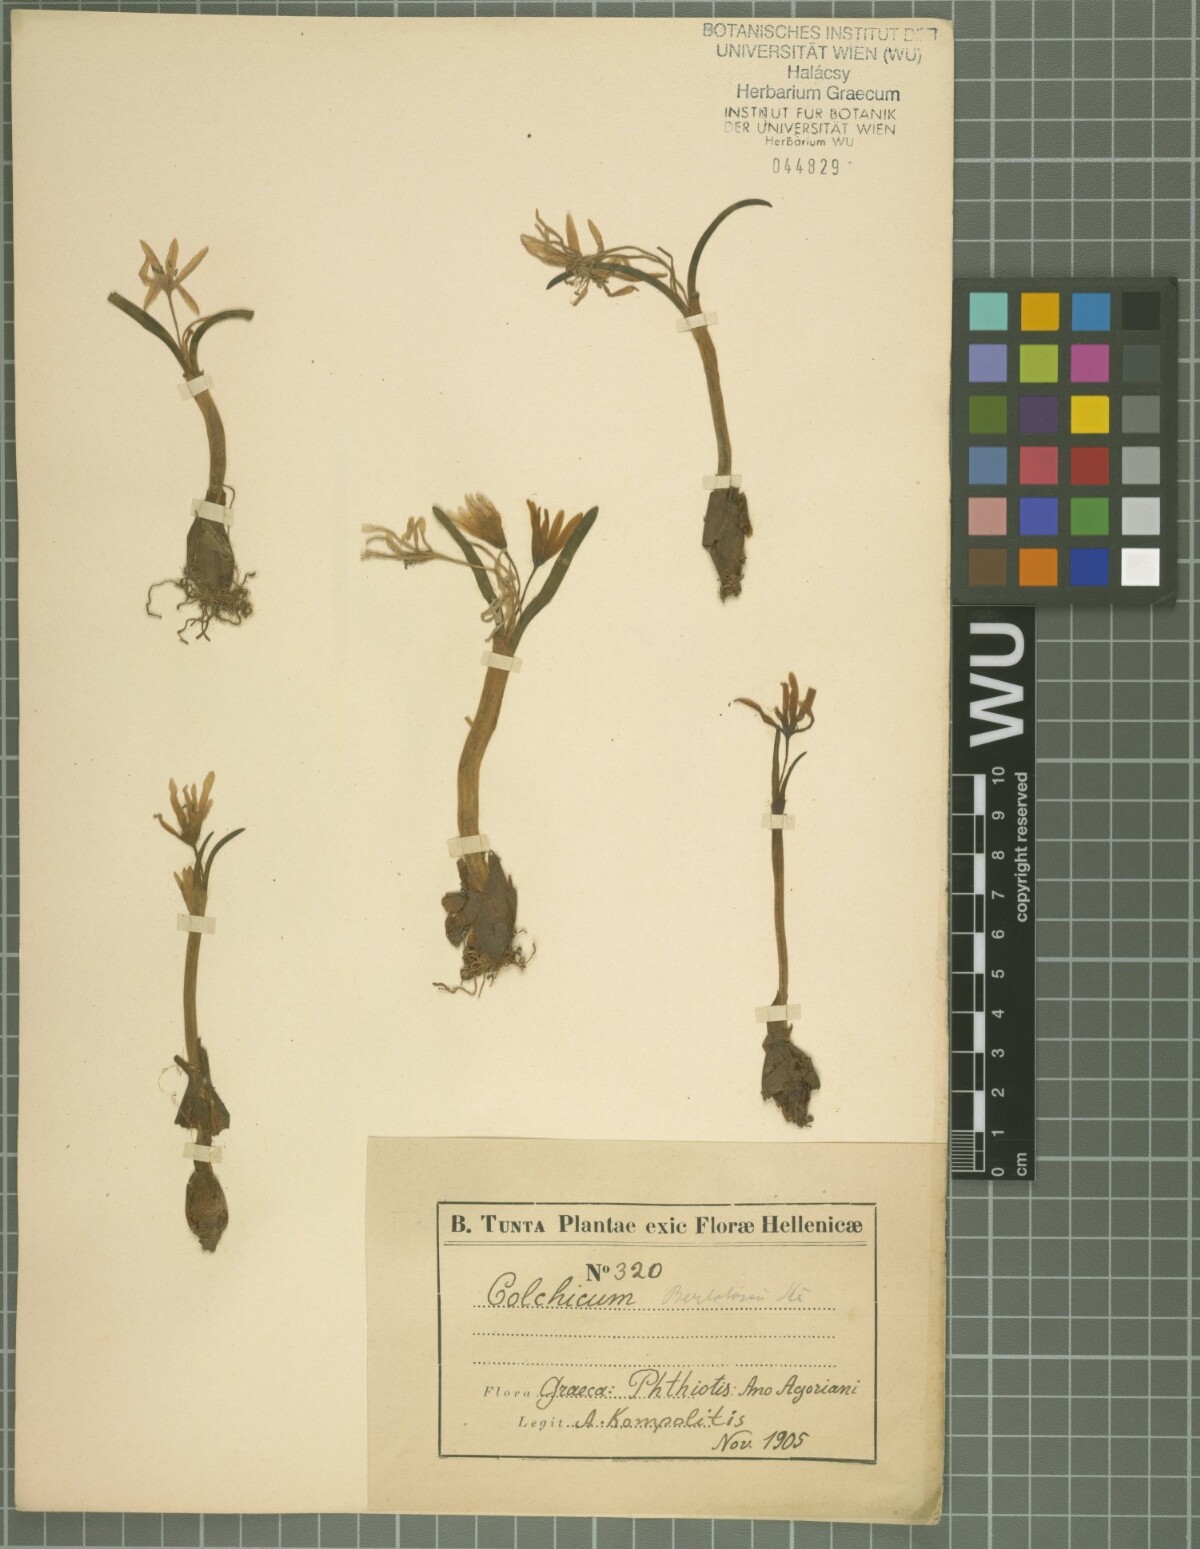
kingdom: Plantae
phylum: Tracheophyta
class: Liliopsida
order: Liliales
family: Colchicaceae
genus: Colchicum
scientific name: Colchicum cupanii
